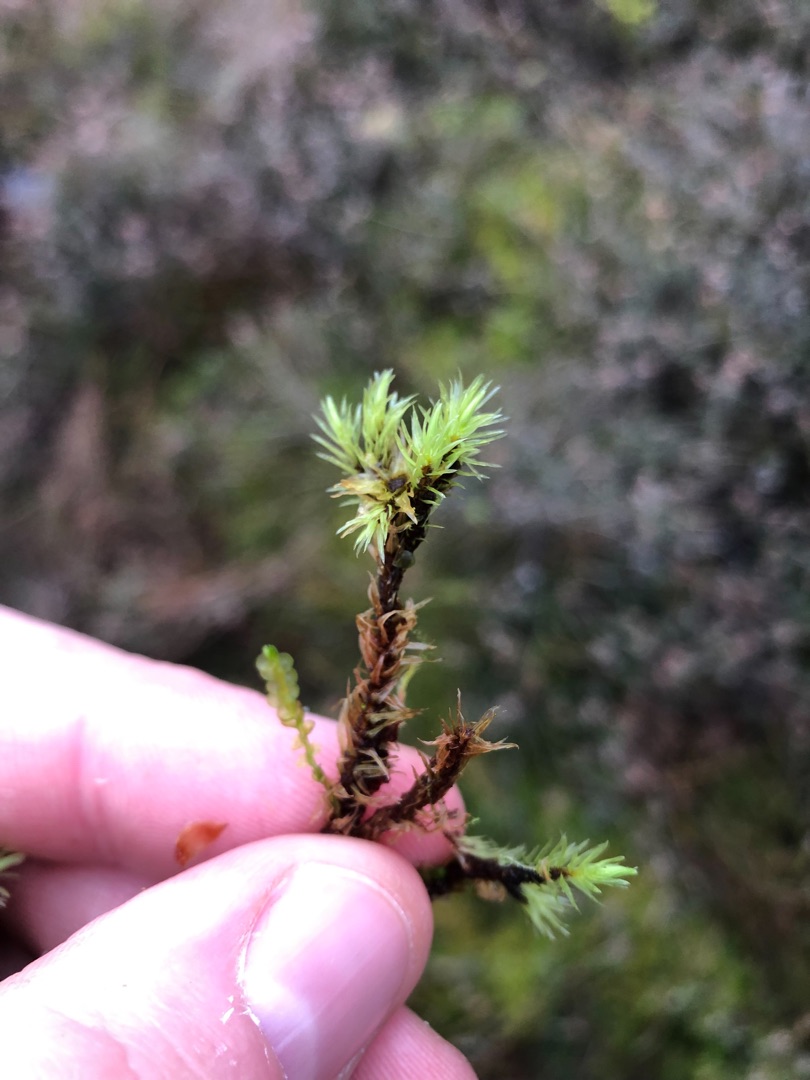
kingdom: Plantae
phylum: Bryophyta
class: Bryopsida
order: Aulacomniales
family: Aulacomniaceae
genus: Aulacomnium
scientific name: Aulacomnium palustre
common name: Almindelig filtmos
